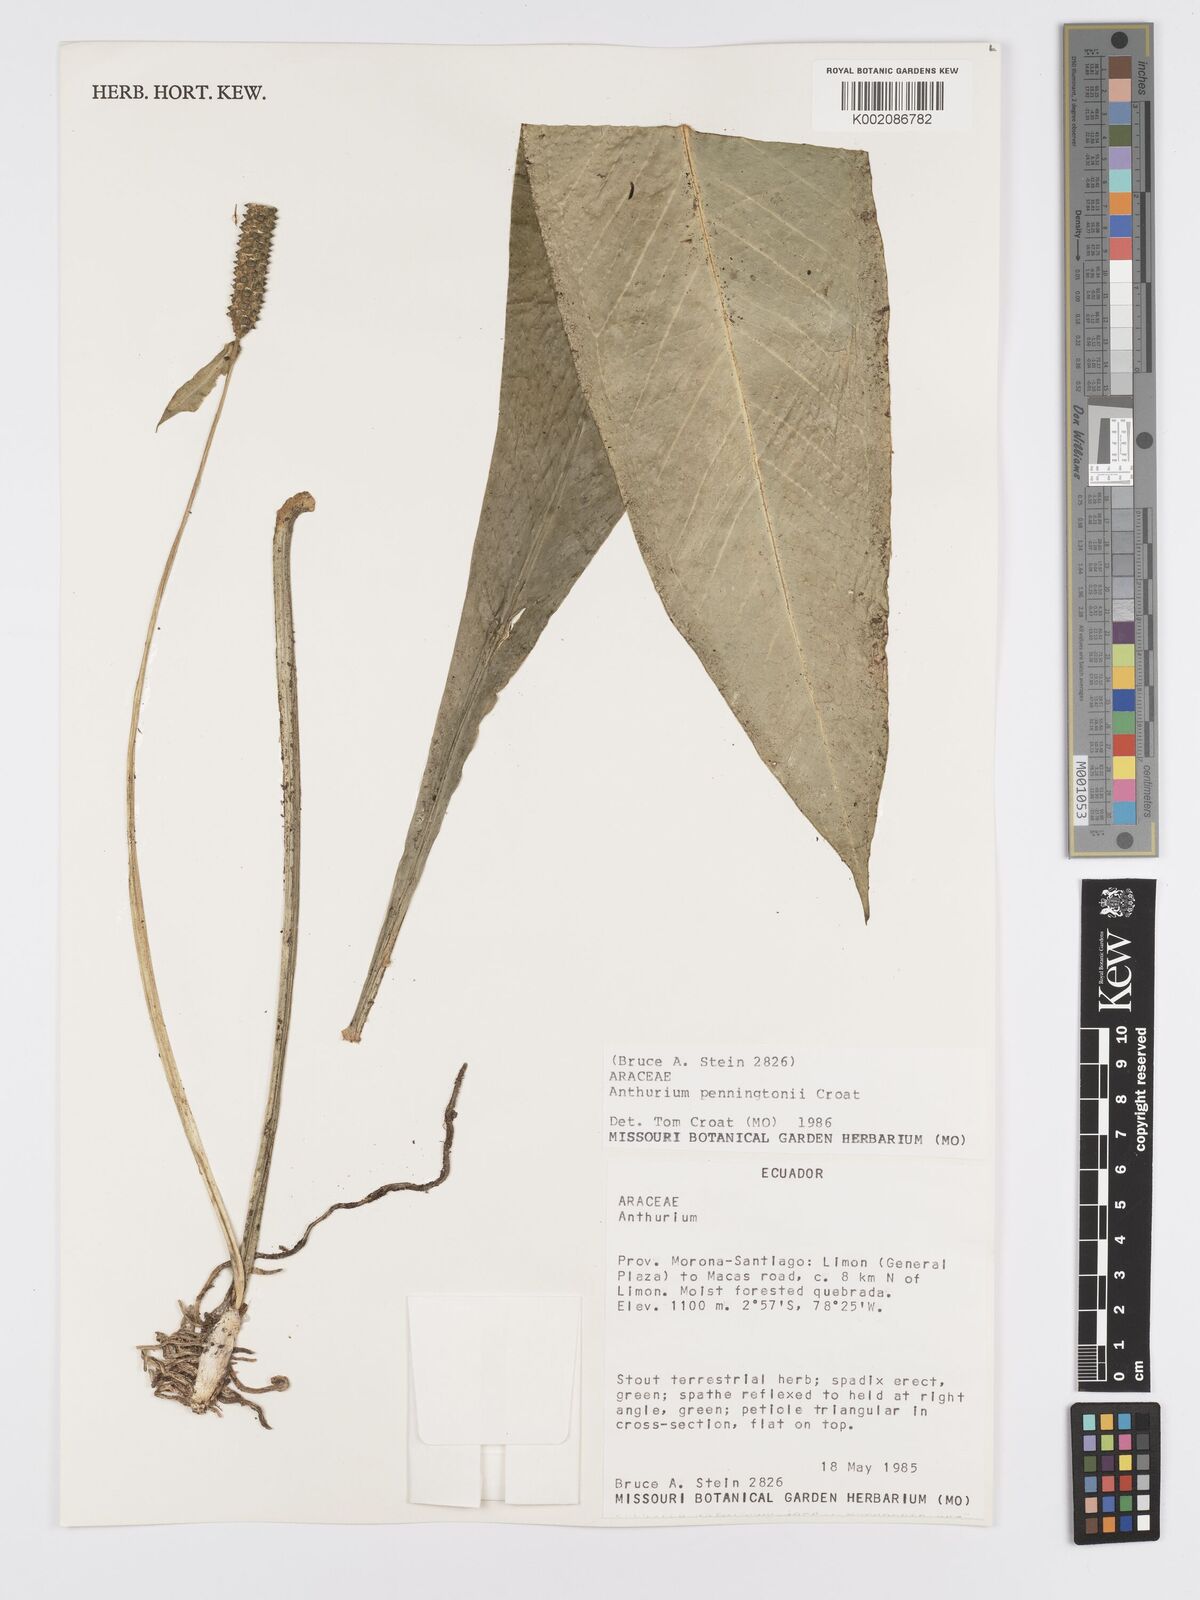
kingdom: Plantae
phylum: Tracheophyta
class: Liliopsida
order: Alismatales
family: Araceae
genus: Anthurium
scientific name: Anthurium penningtonii
